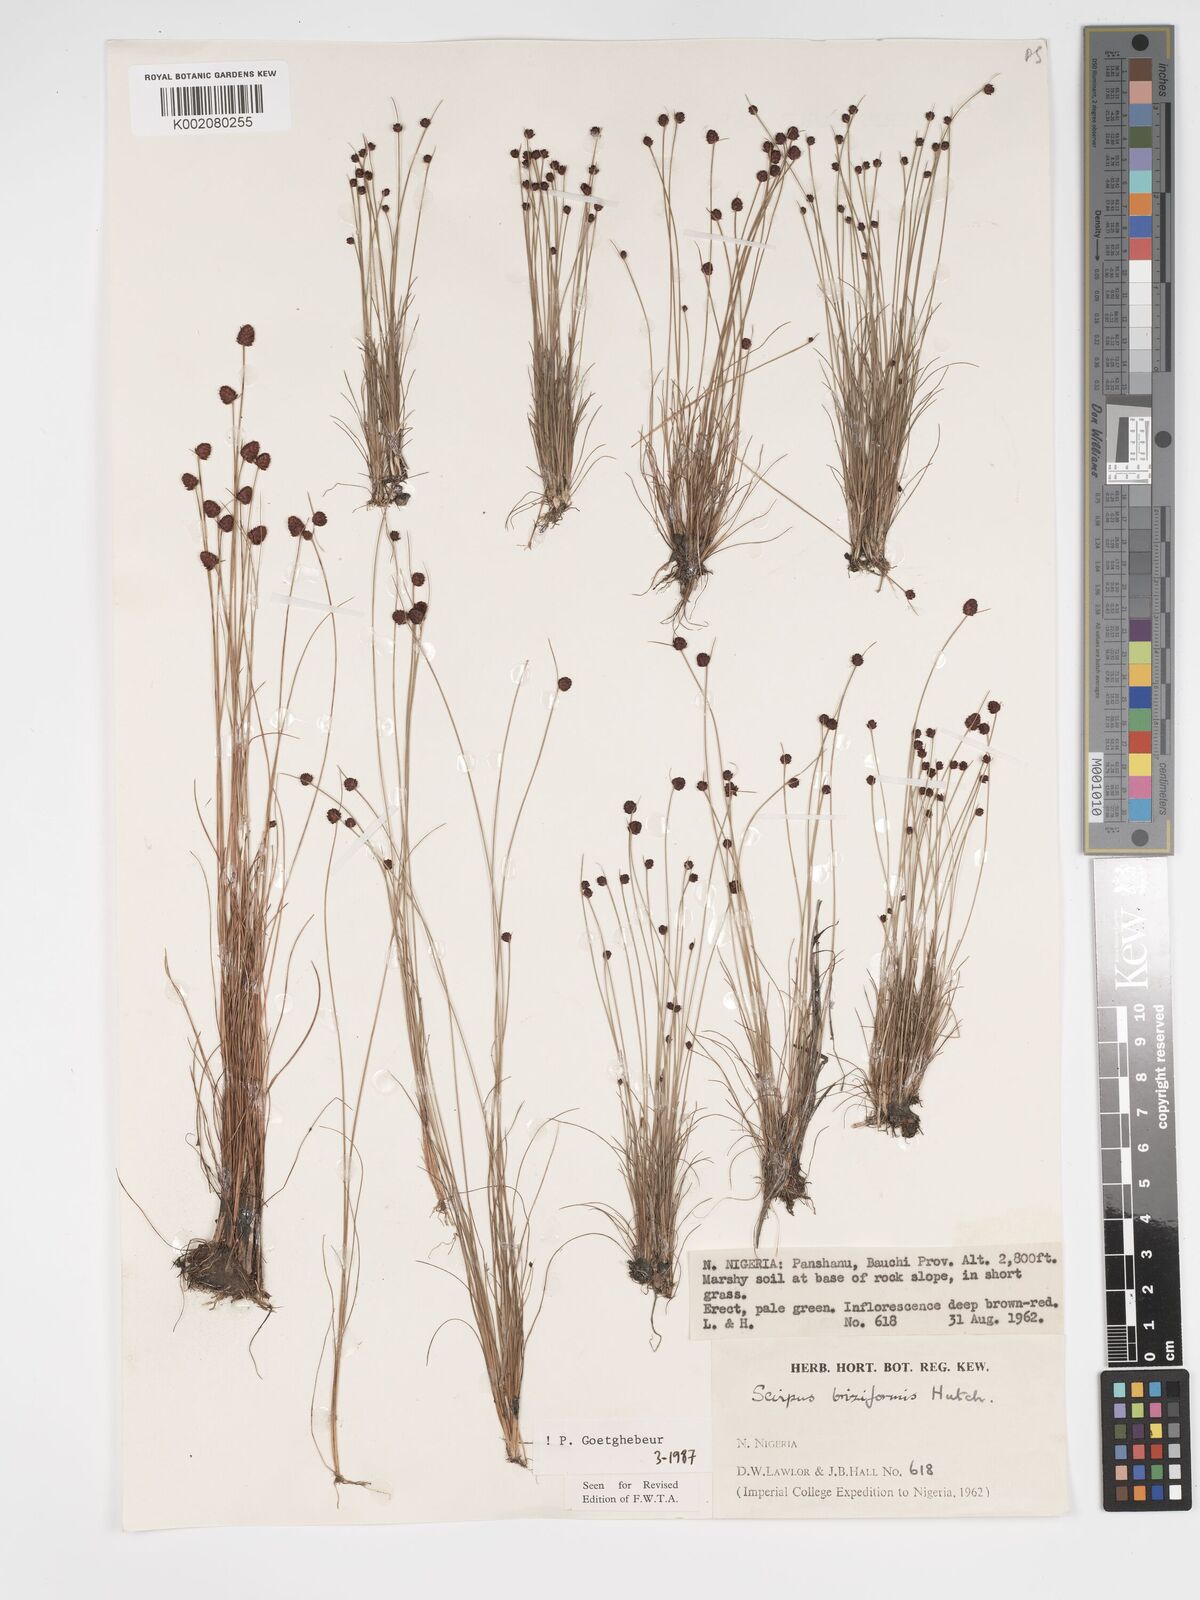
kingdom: Plantae
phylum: Tracheophyta
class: Liliopsida
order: Poales
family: Cyperaceae
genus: Bulbostylis
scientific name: Bulbostylis briziformis
